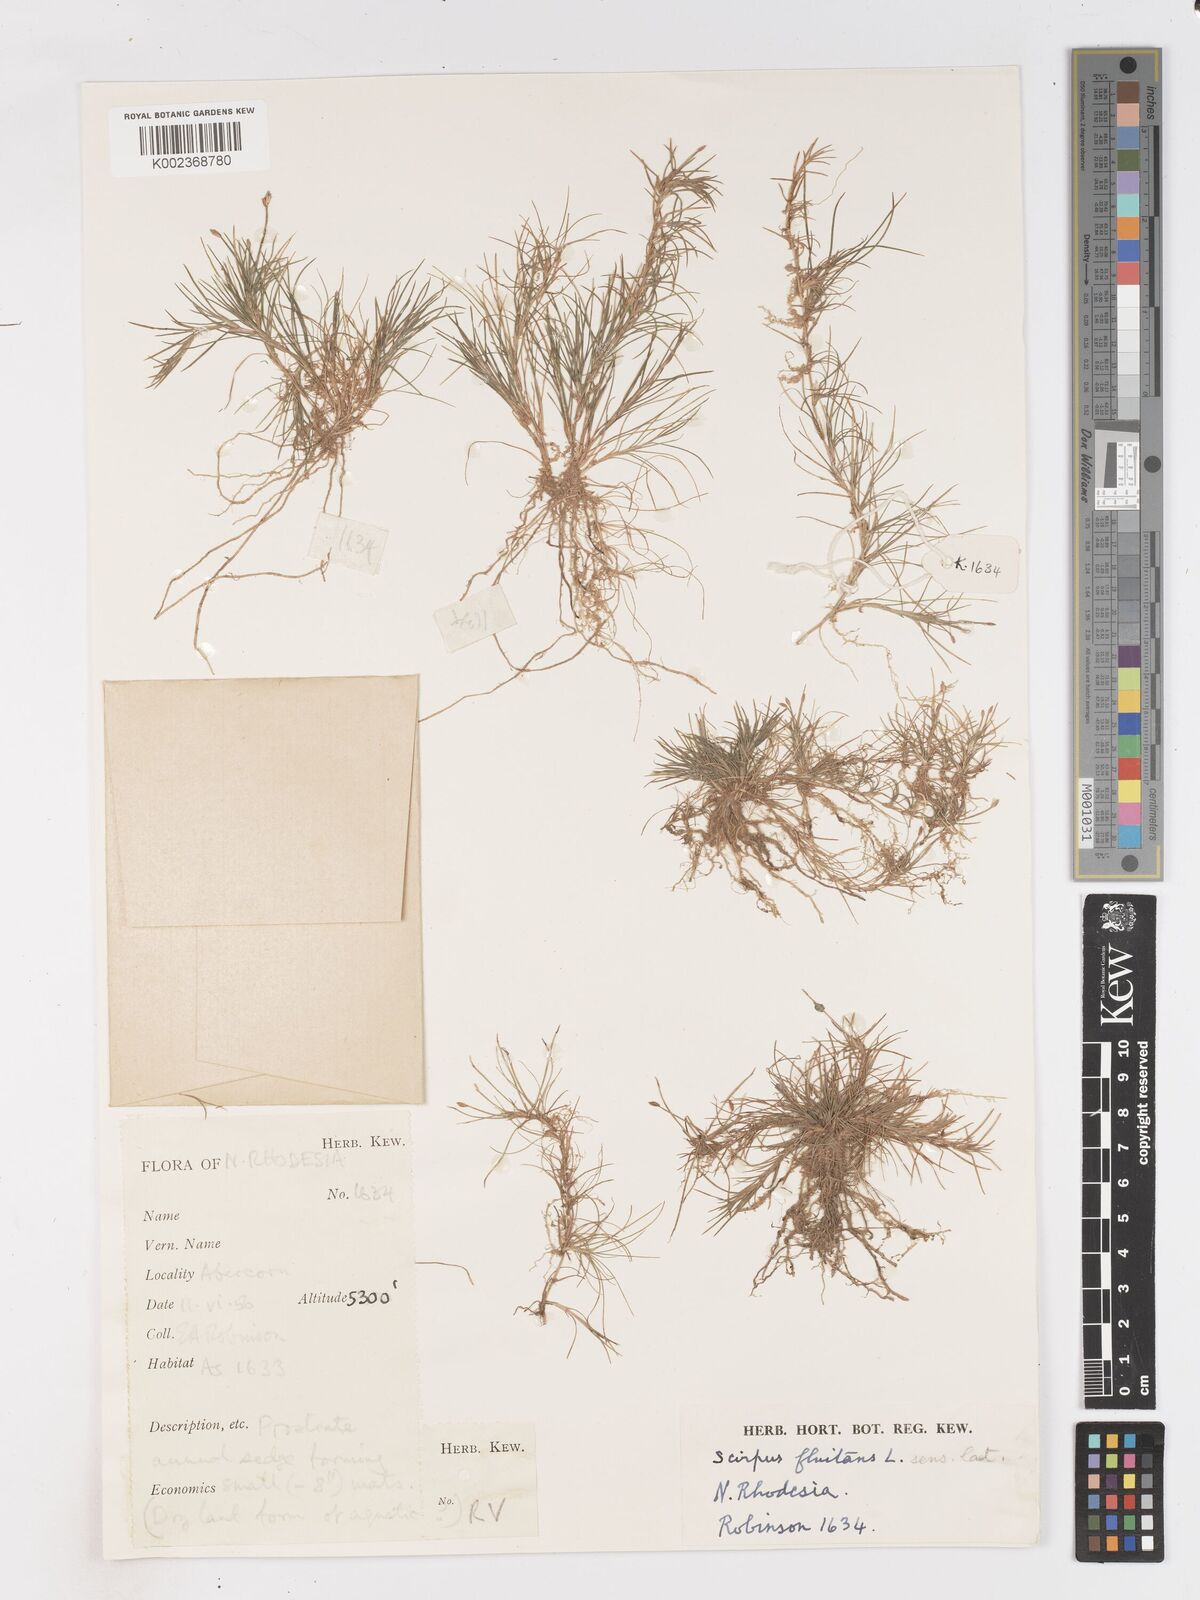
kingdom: Plantae
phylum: Tracheophyta
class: Liliopsida
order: Poales
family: Cyperaceae
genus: Isolepis
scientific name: Isolepis fluitans
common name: Floating club-rush
